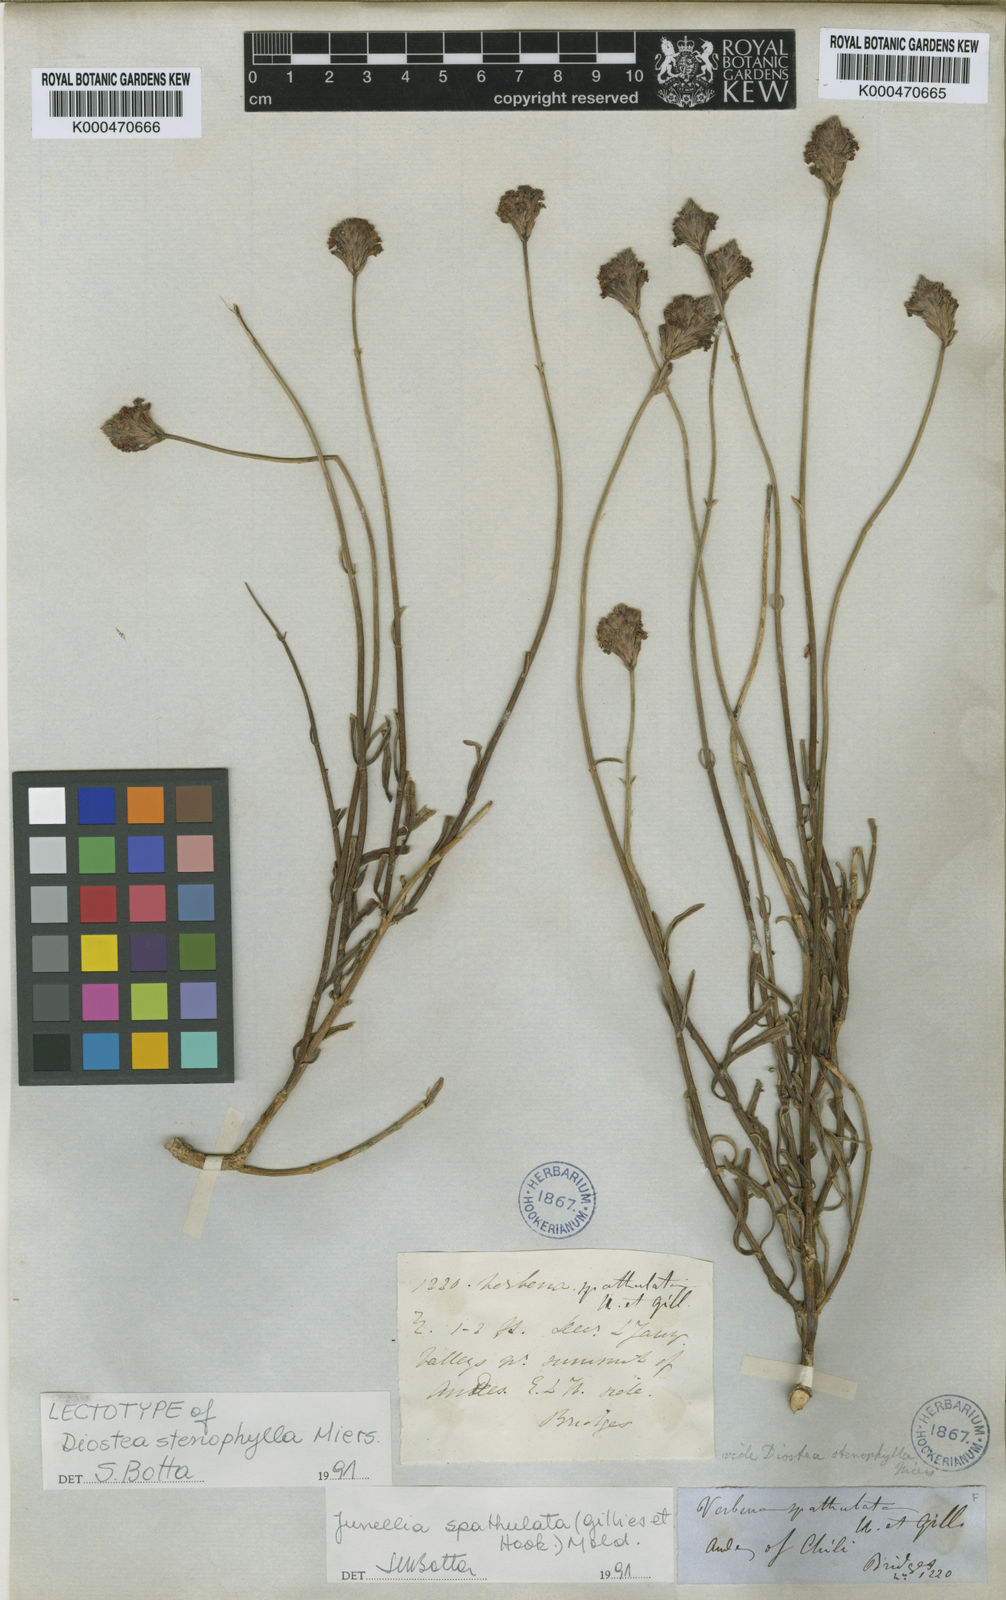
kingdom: Plantae
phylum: Tracheophyta
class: Magnoliopsida
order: Lamiales
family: Verbenaceae
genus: Junellia
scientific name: Junellia spathulata
